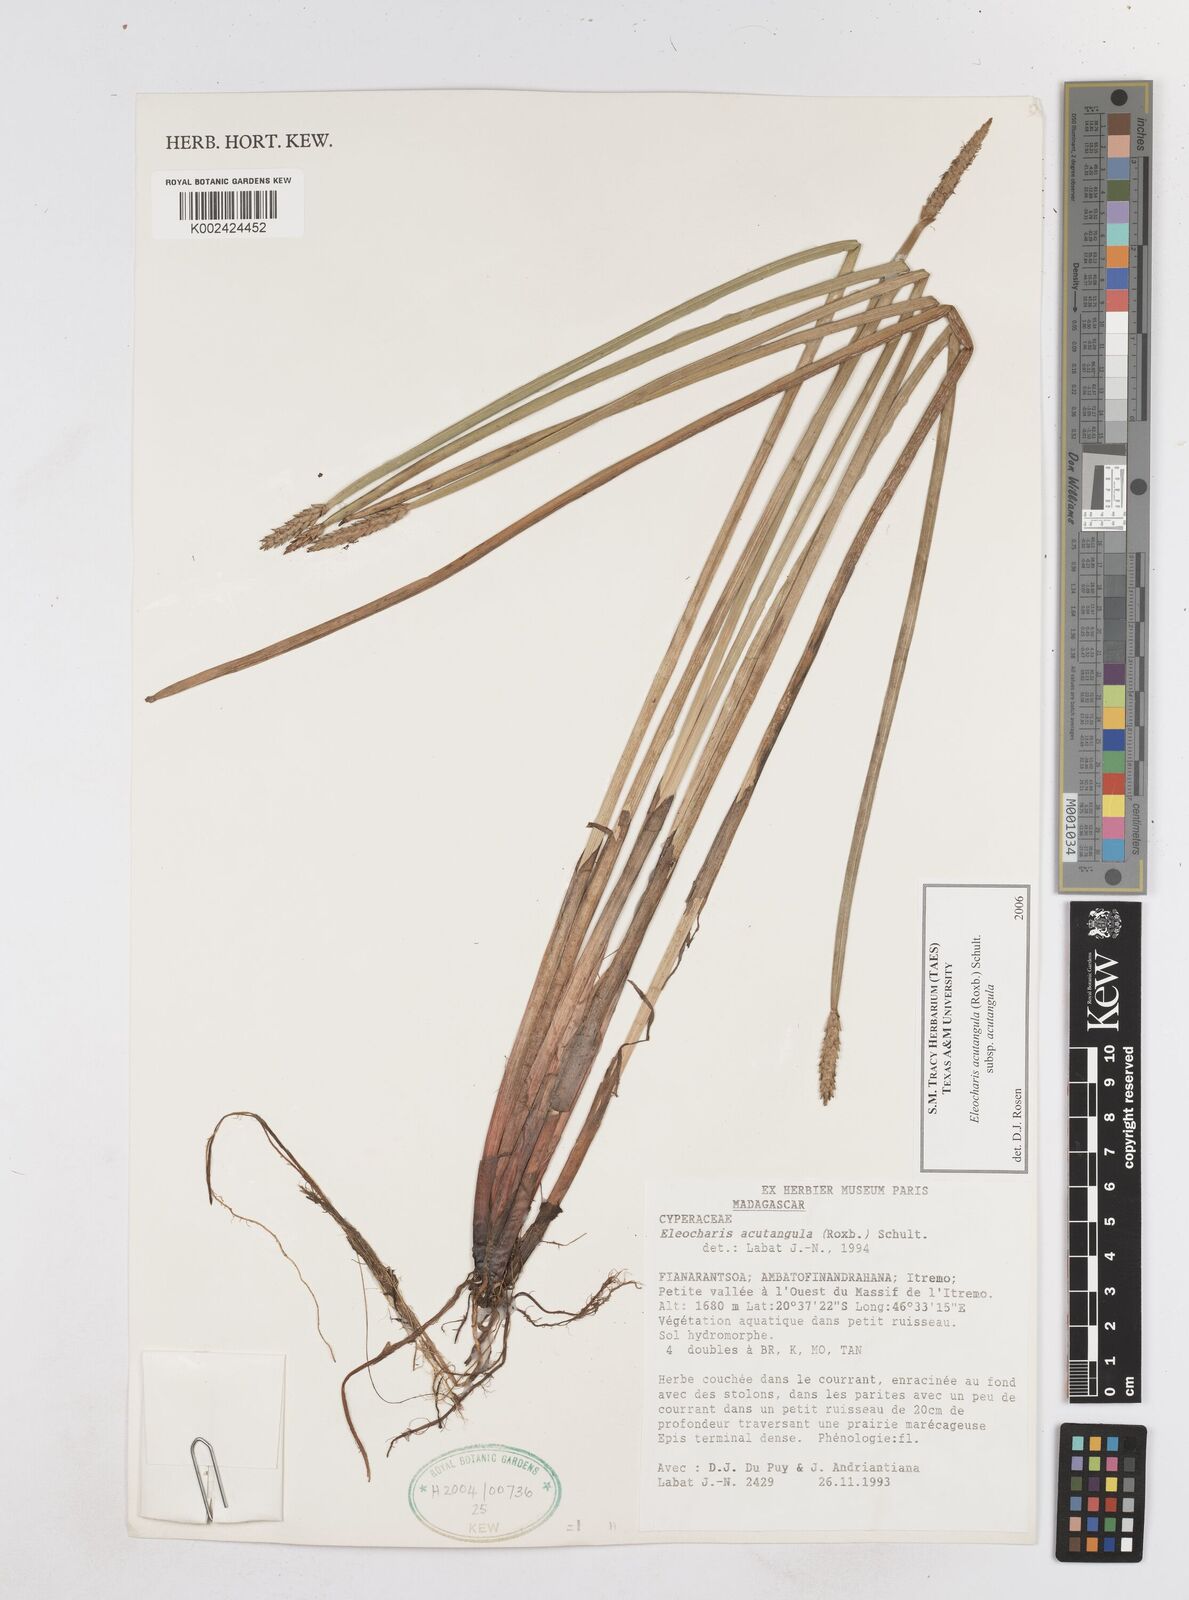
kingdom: Plantae
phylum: Tracheophyta
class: Liliopsida
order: Poales
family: Cyperaceae
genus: Eleocharis
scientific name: Eleocharis acutangula
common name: Acute spikerush
